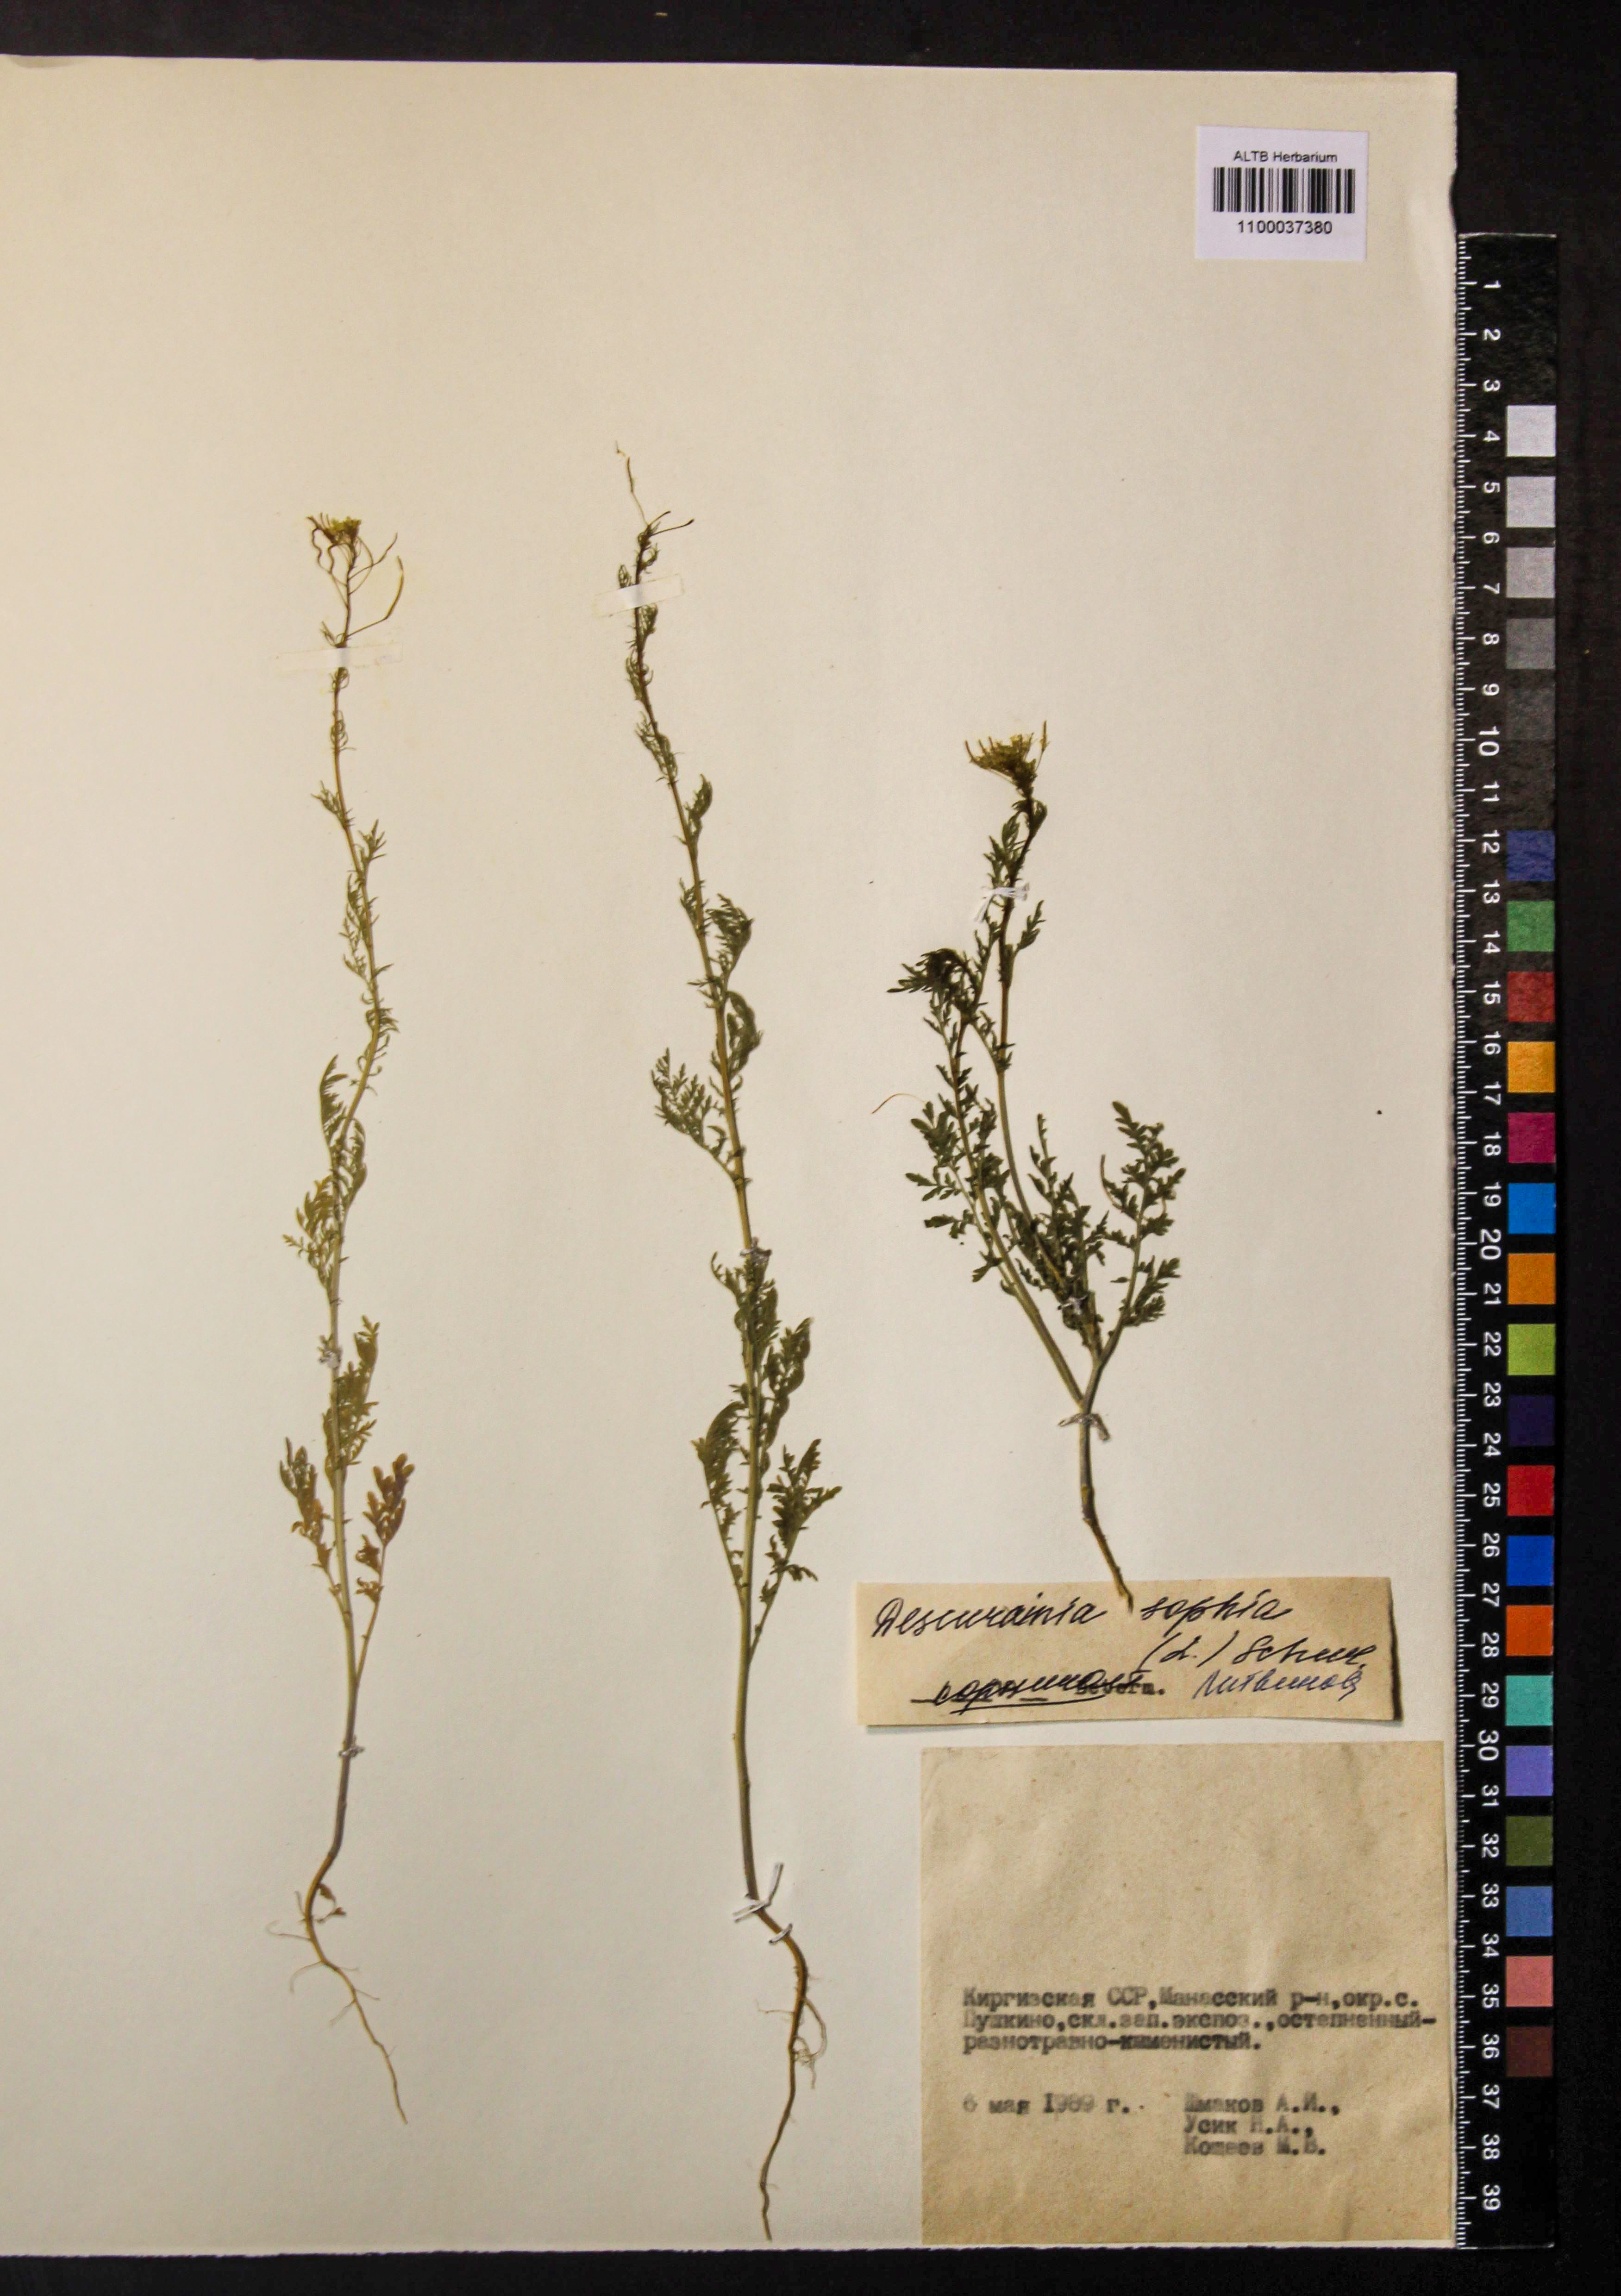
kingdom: Plantae
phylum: Tracheophyta
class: Magnoliopsida
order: Brassicales
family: Brassicaceae
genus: Descurainia
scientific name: Descurainia sophia
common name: Flixweed
